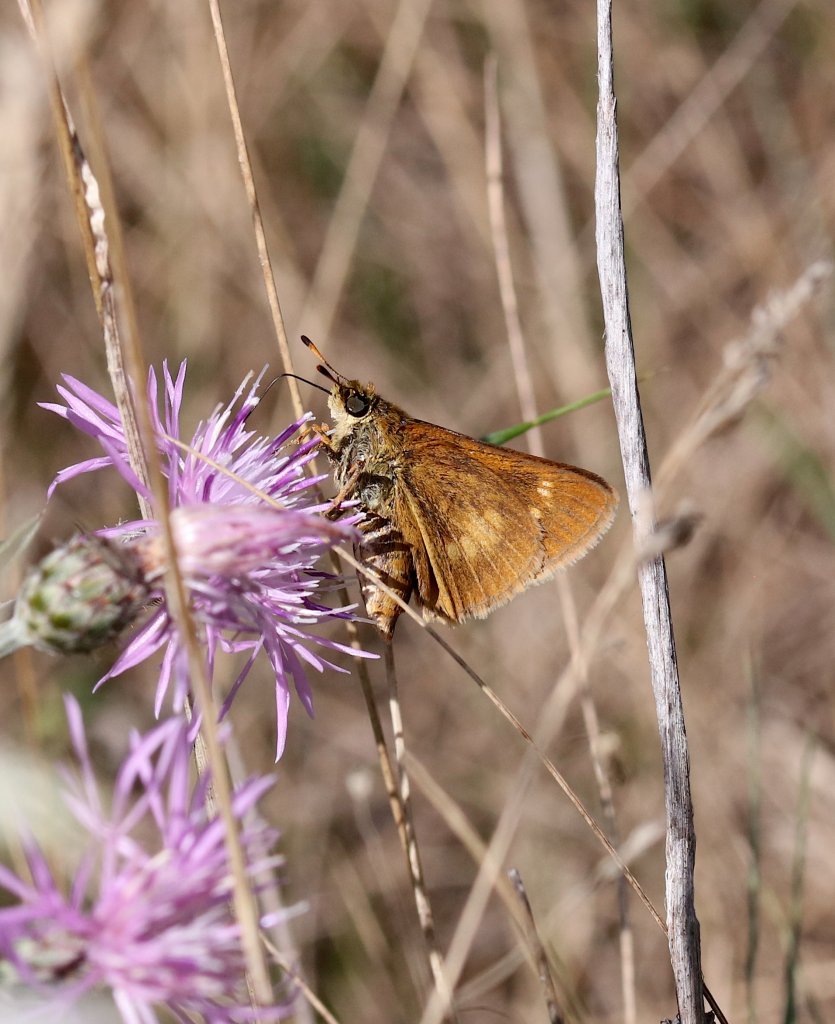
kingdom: Animalia
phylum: Arthropoda
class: Insecta
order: Lepidoptera
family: Hesperiidae
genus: Euphyes
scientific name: Euphyes conspicua
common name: Black Dash
